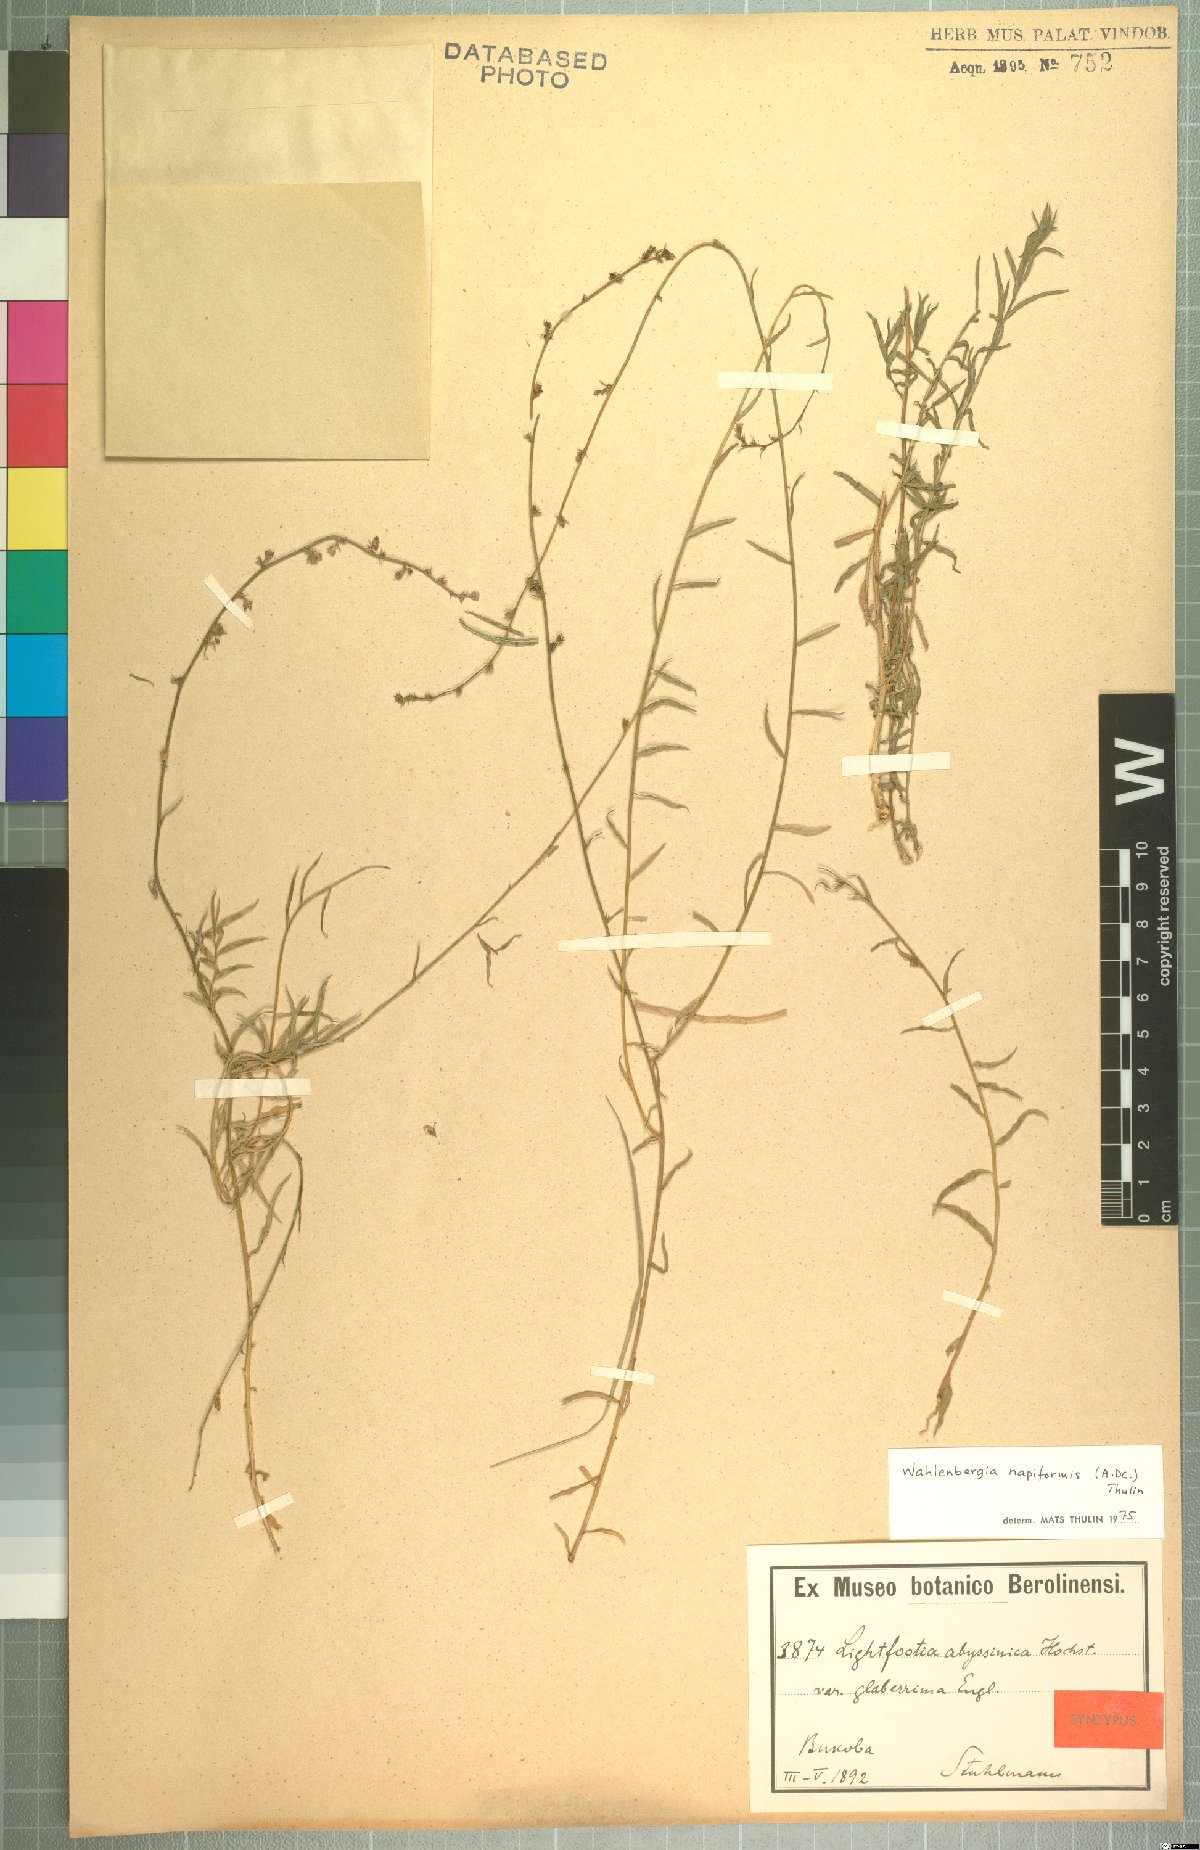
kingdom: Plantae
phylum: Tracheophyta
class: Magnoliopsida
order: Asterales
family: Campanulaceae
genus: Wahlenbergia
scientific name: Wahlenbergia napiformis
